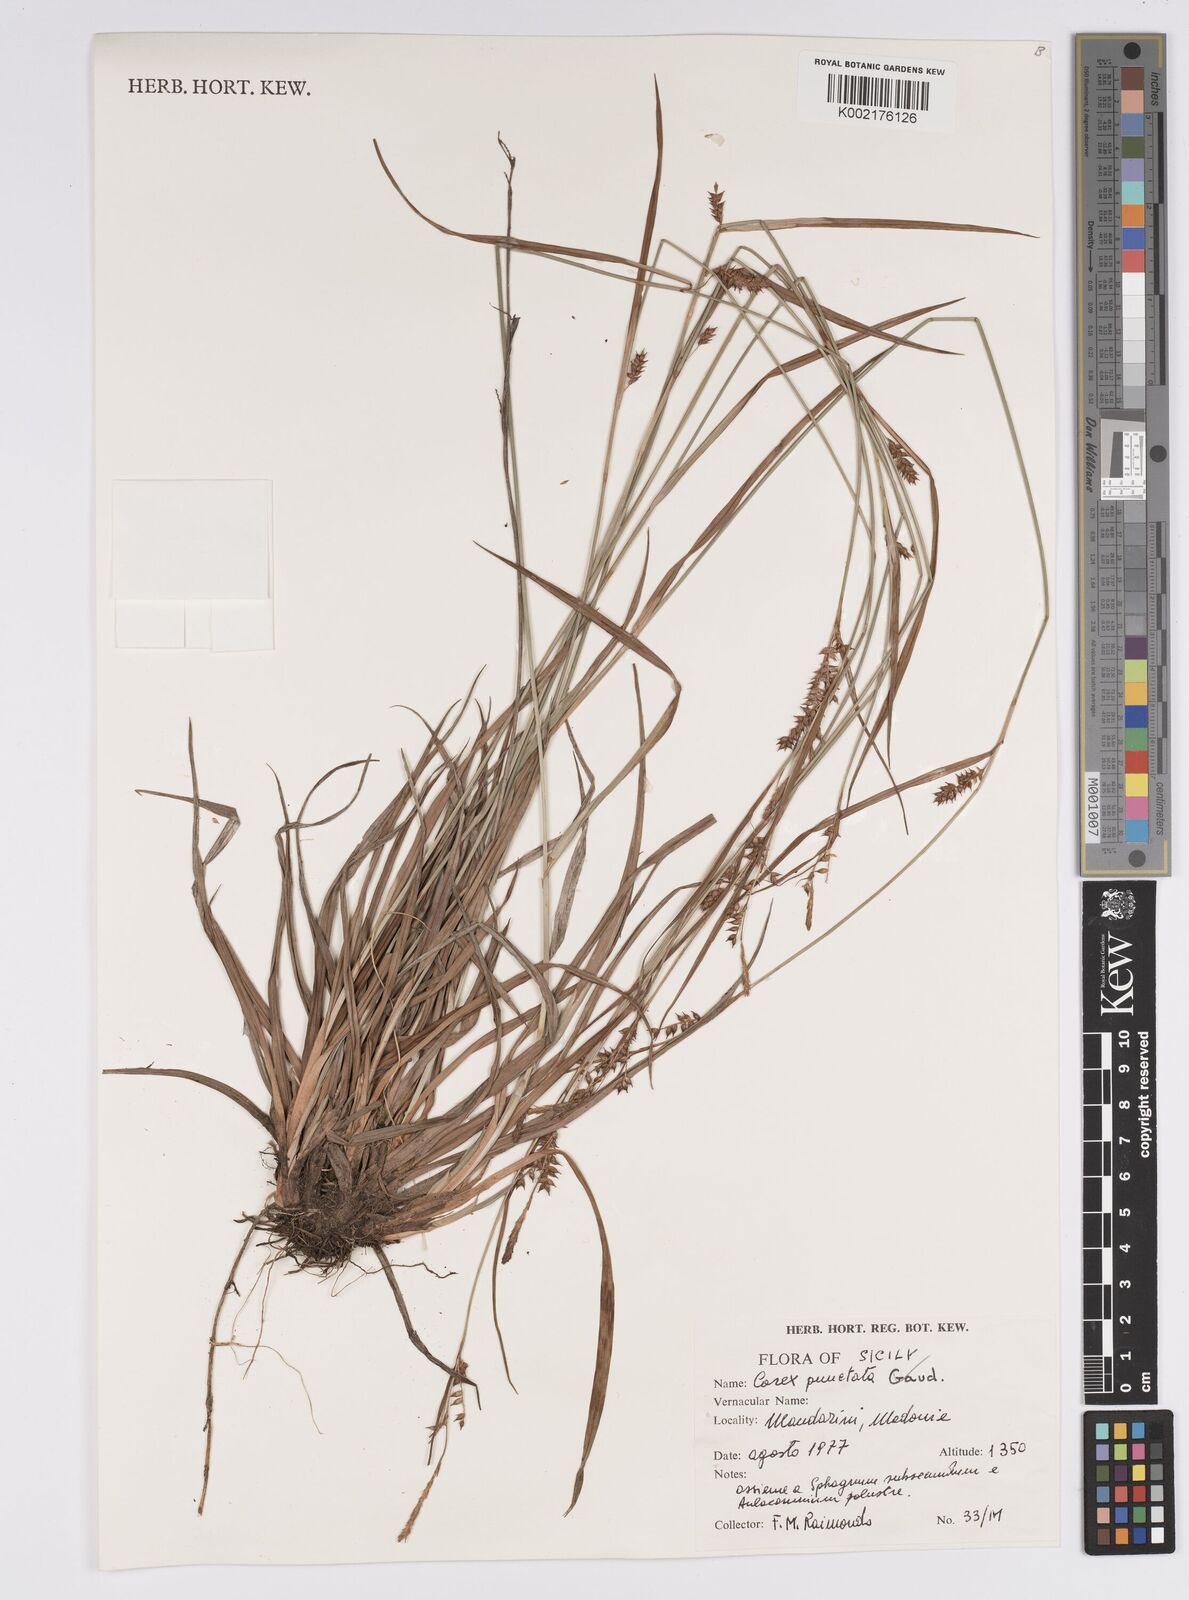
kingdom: Plantae
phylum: Tracheophyta
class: Liliopsida
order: Poales
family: Cyperaceae
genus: Carex
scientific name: Carex punctata
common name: Dotted sedge
